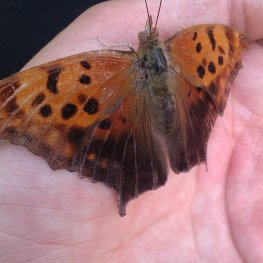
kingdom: Animalia
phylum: Arthropoda
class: Insecta
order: Lepidoptera
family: Nymphalidae
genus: Polygonia
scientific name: Polygonia interrogationis
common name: Question Mark
